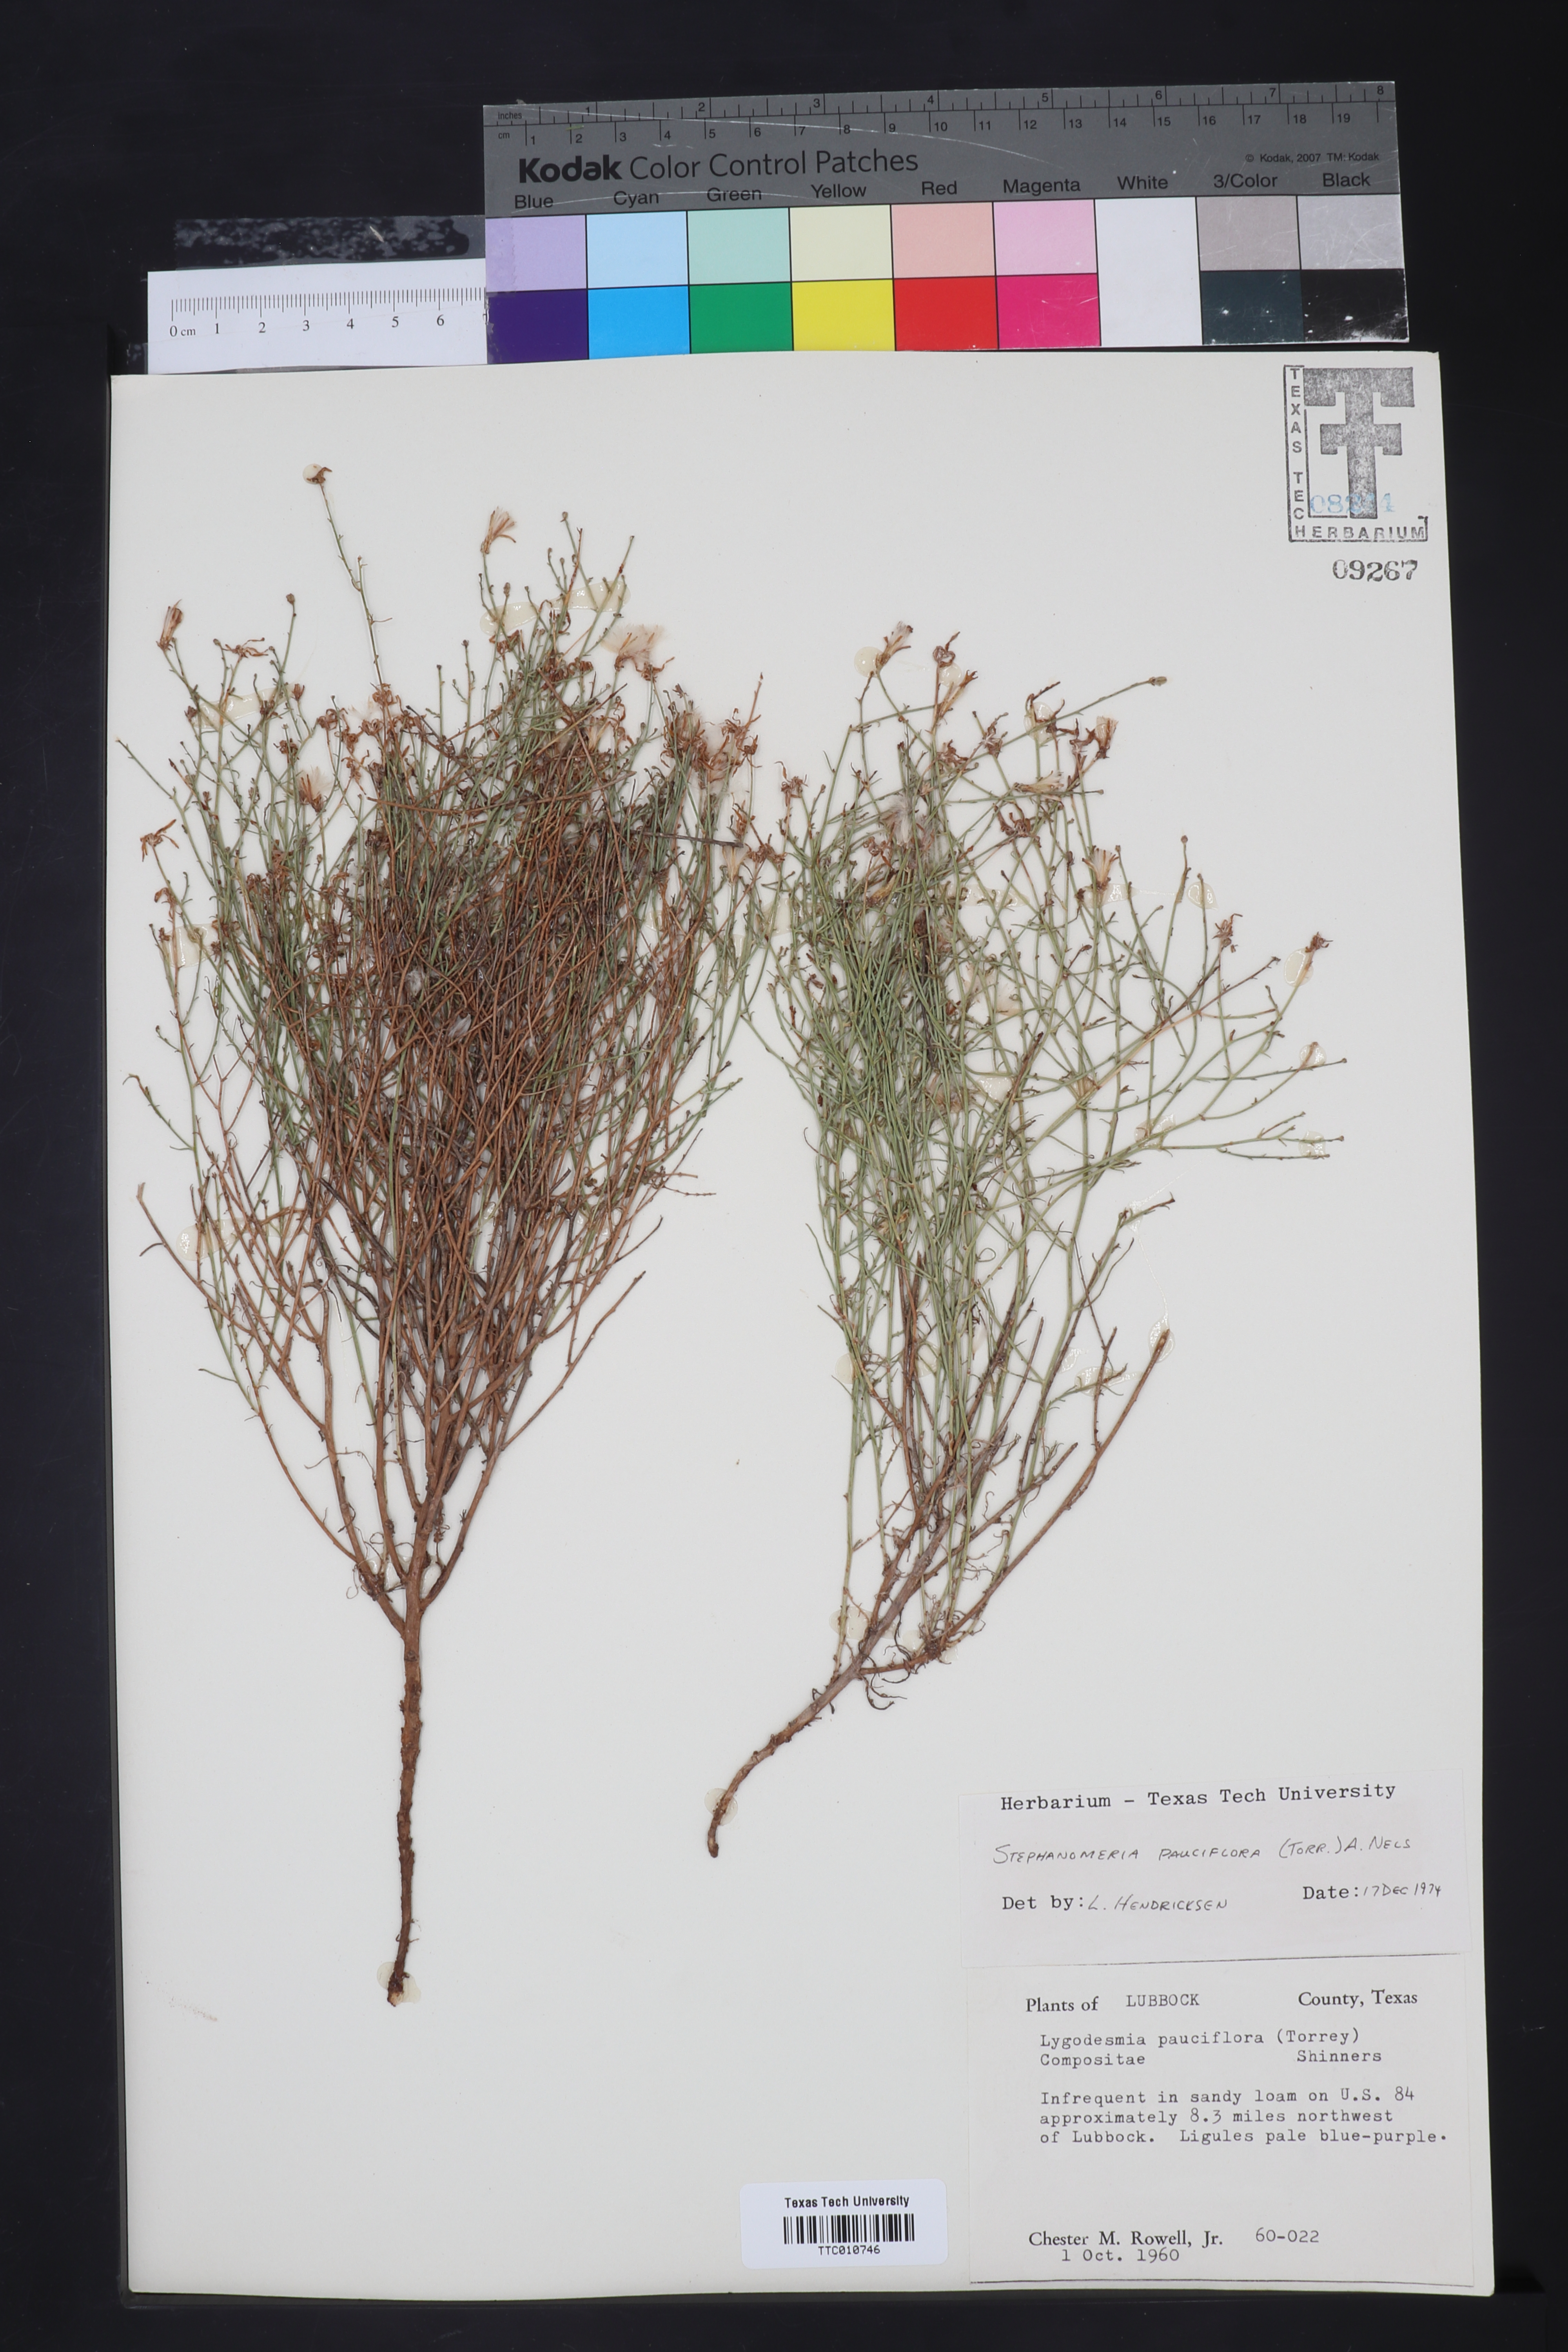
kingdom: Plantae
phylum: Tracheophyta
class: Magnoliopsida
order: Asterales
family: Asteraceae
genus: Stephanomeria
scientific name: Stephanomeria pauciflora
